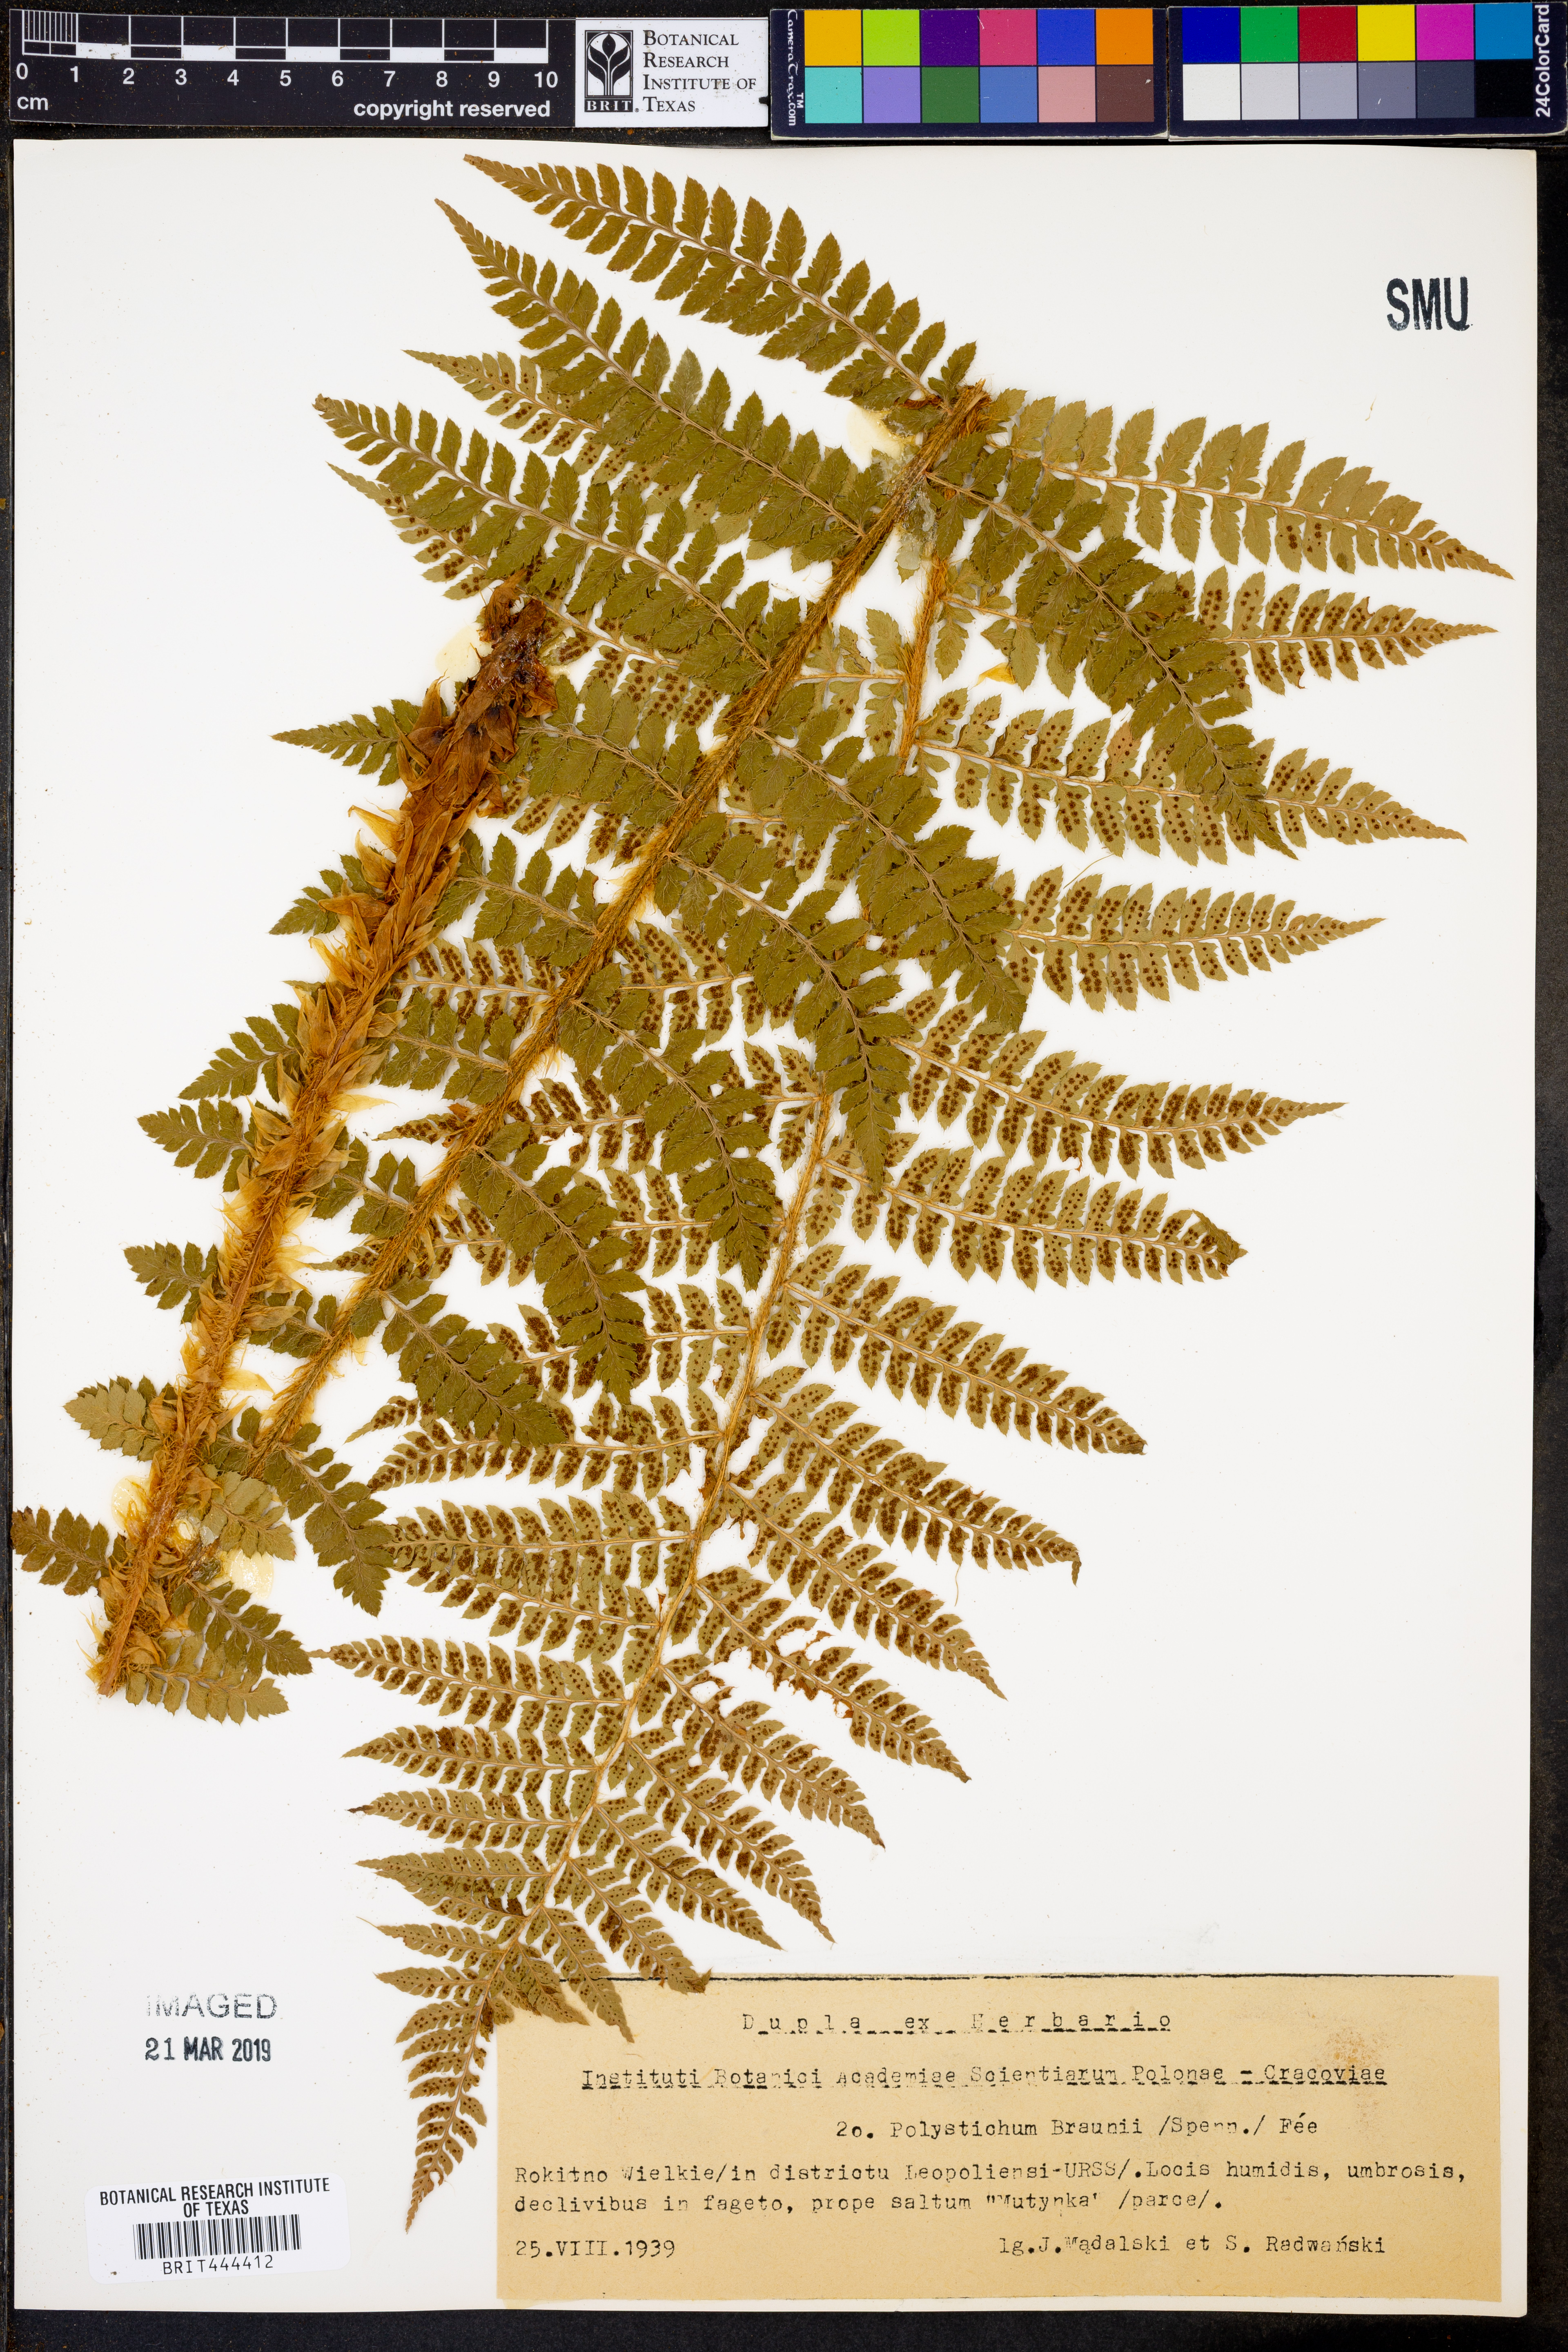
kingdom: Plantae
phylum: Tracheophyta
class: Polypodiopsida
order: Polypodiales
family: Dryopteridaceae
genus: Polystichum
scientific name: Polystichum braunii
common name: Braun's holly fern
